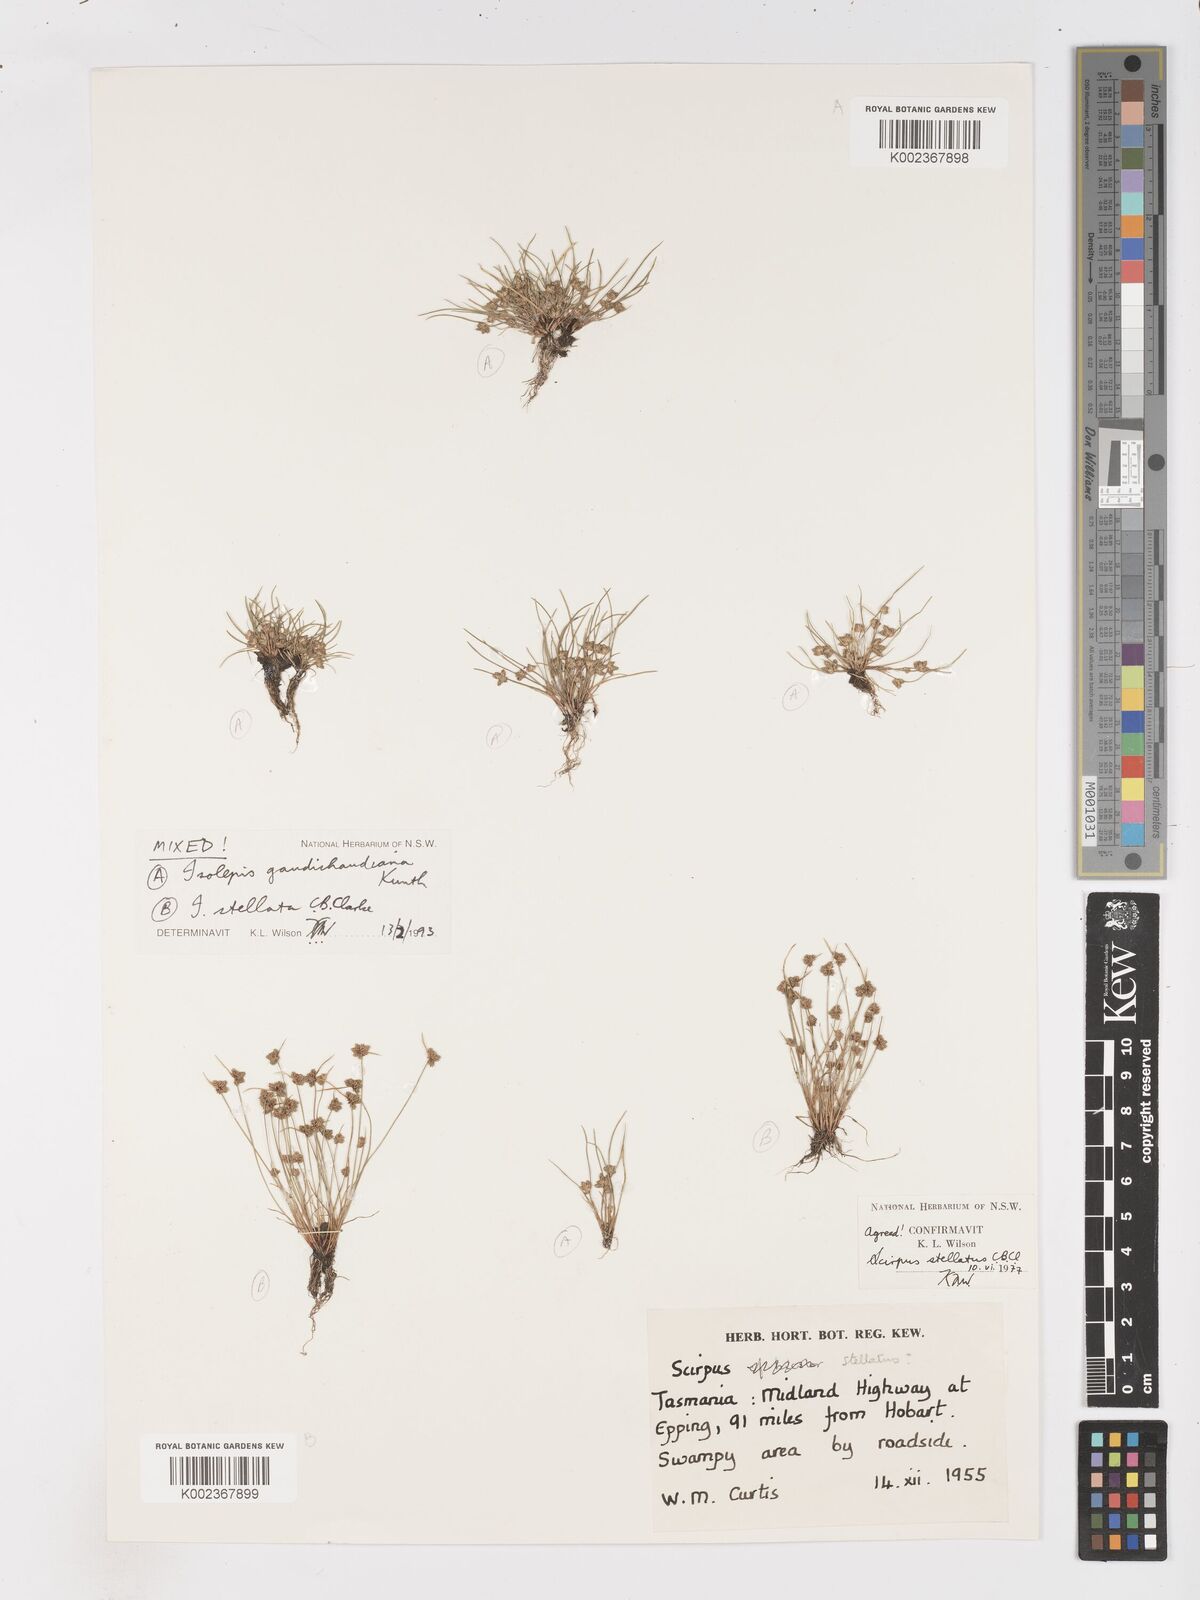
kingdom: Plantae
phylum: Tracheophyta
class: Liliopsida
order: Poales
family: Cyperaceae
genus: Isolepis
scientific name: Isolepis stellata
